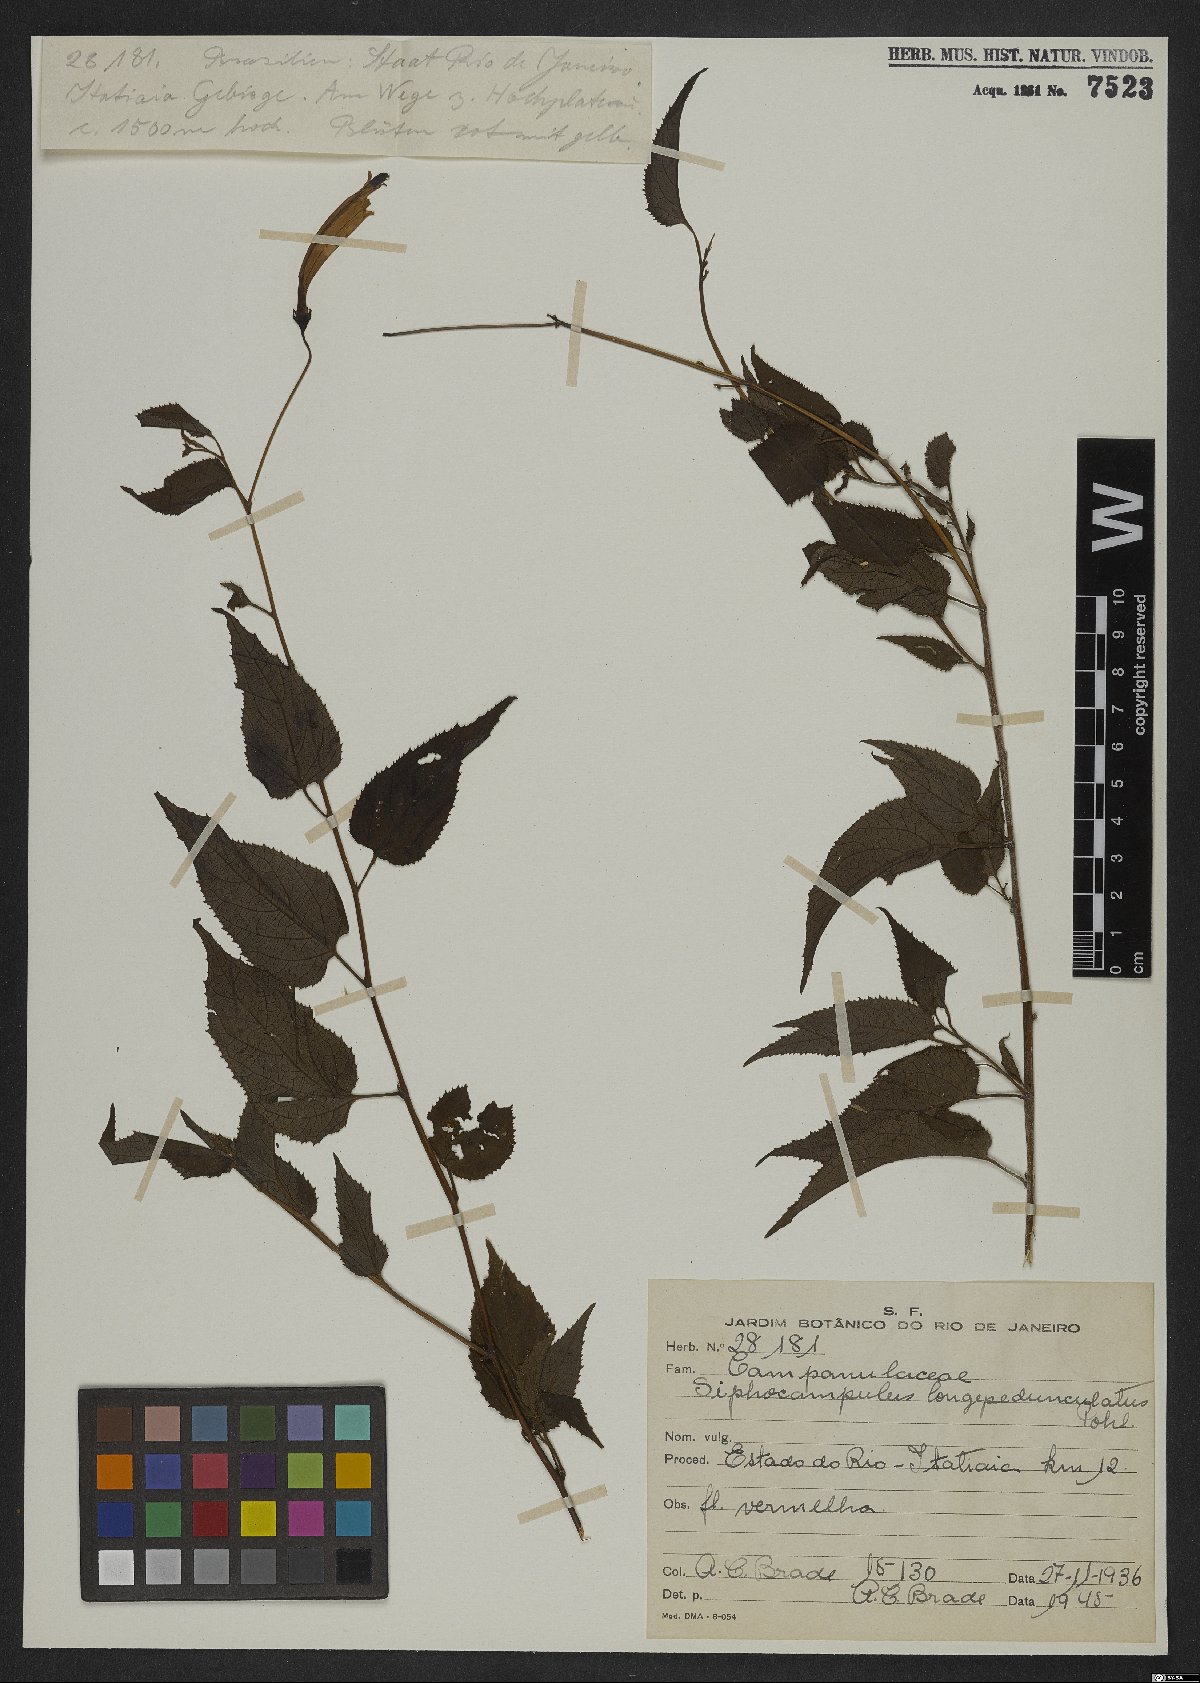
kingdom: Plantae
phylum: Tracheophyta
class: Magnoliopsida
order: Asterales
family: Campanulaceae
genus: Siphocampylus
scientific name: Siphocampylus longipedunculatus
